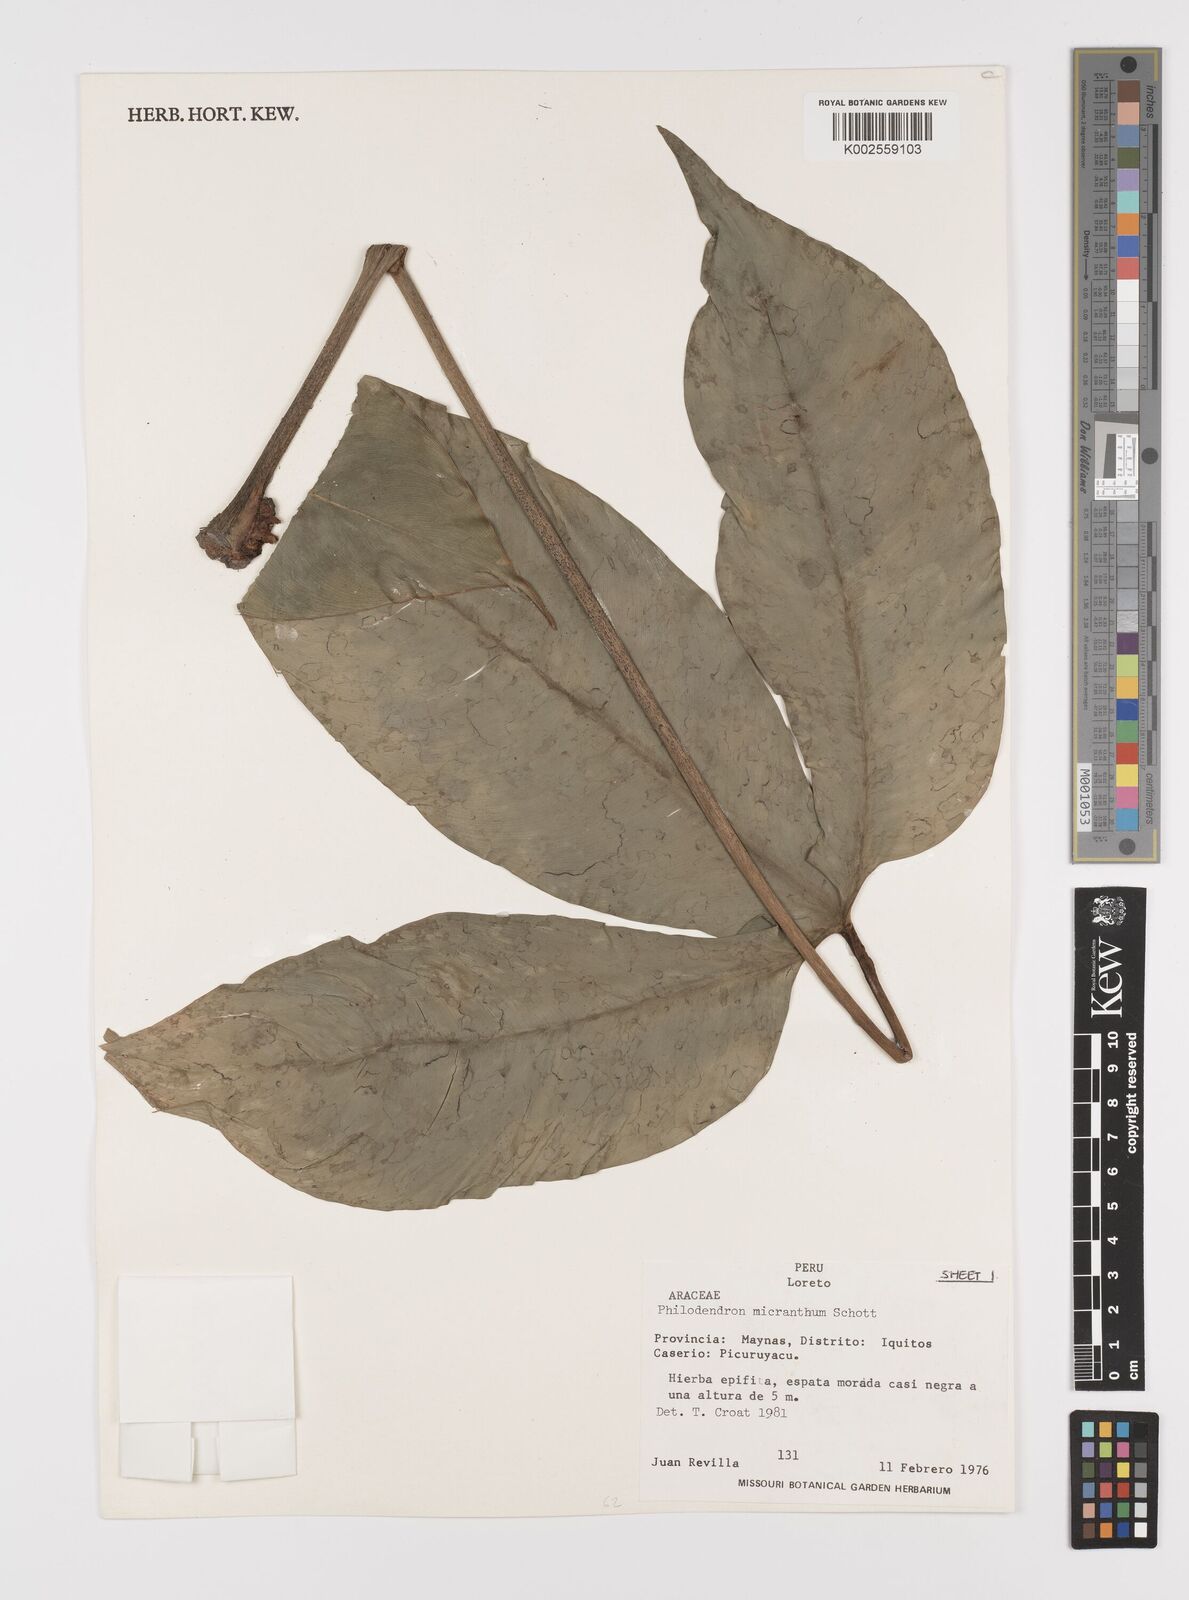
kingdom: Plantae
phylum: Tracheophyta
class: Liliopsida
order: Alismatales
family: Araceae
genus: Philodendron
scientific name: Philodendron micranthum
